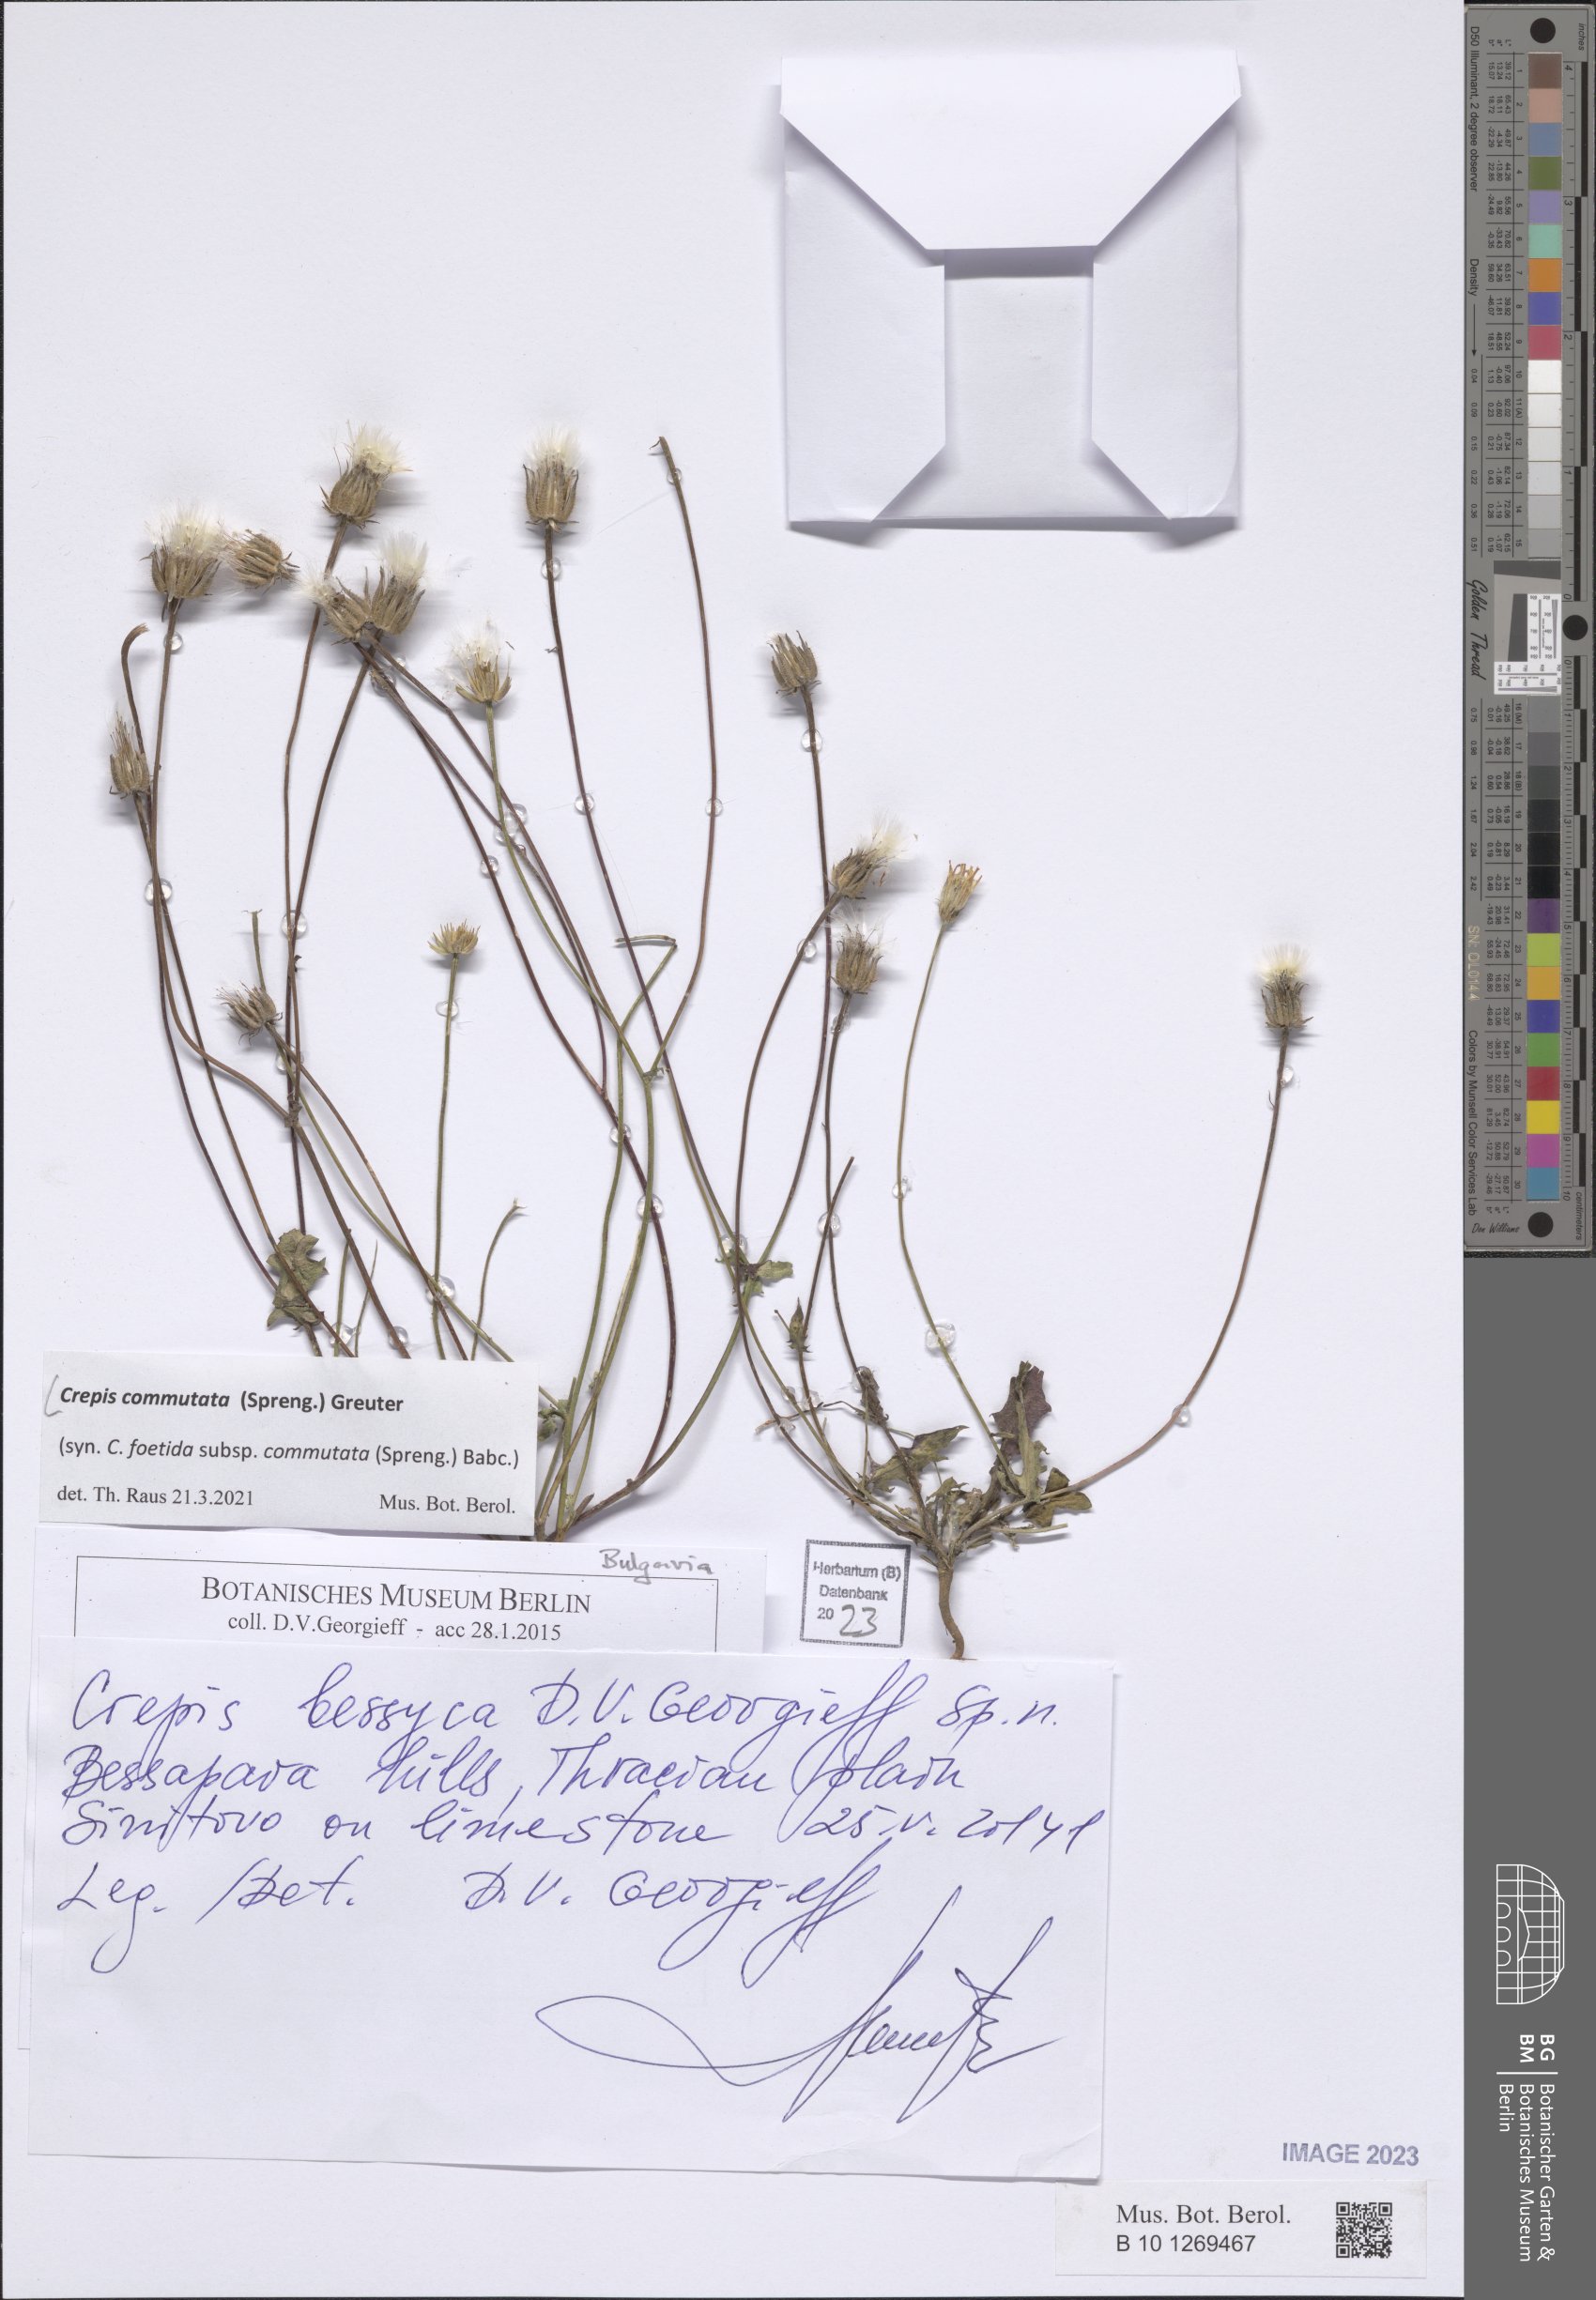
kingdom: Plantae
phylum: Tracheophyta
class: Magnoliopsida
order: Asterales
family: Asteraceae
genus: Crepis
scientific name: Crepis commutata
